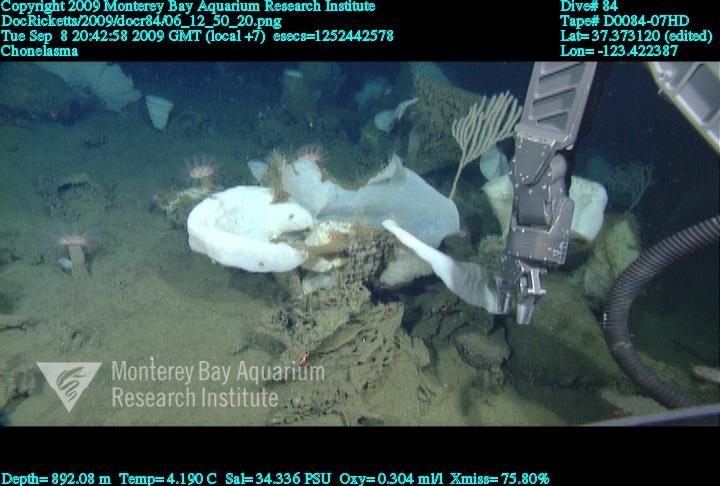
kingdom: Animalia
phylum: Porifera
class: Hexactinellida
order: Sceptrulophora
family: Euretidae
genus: Chonelasma
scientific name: Chonelasma
